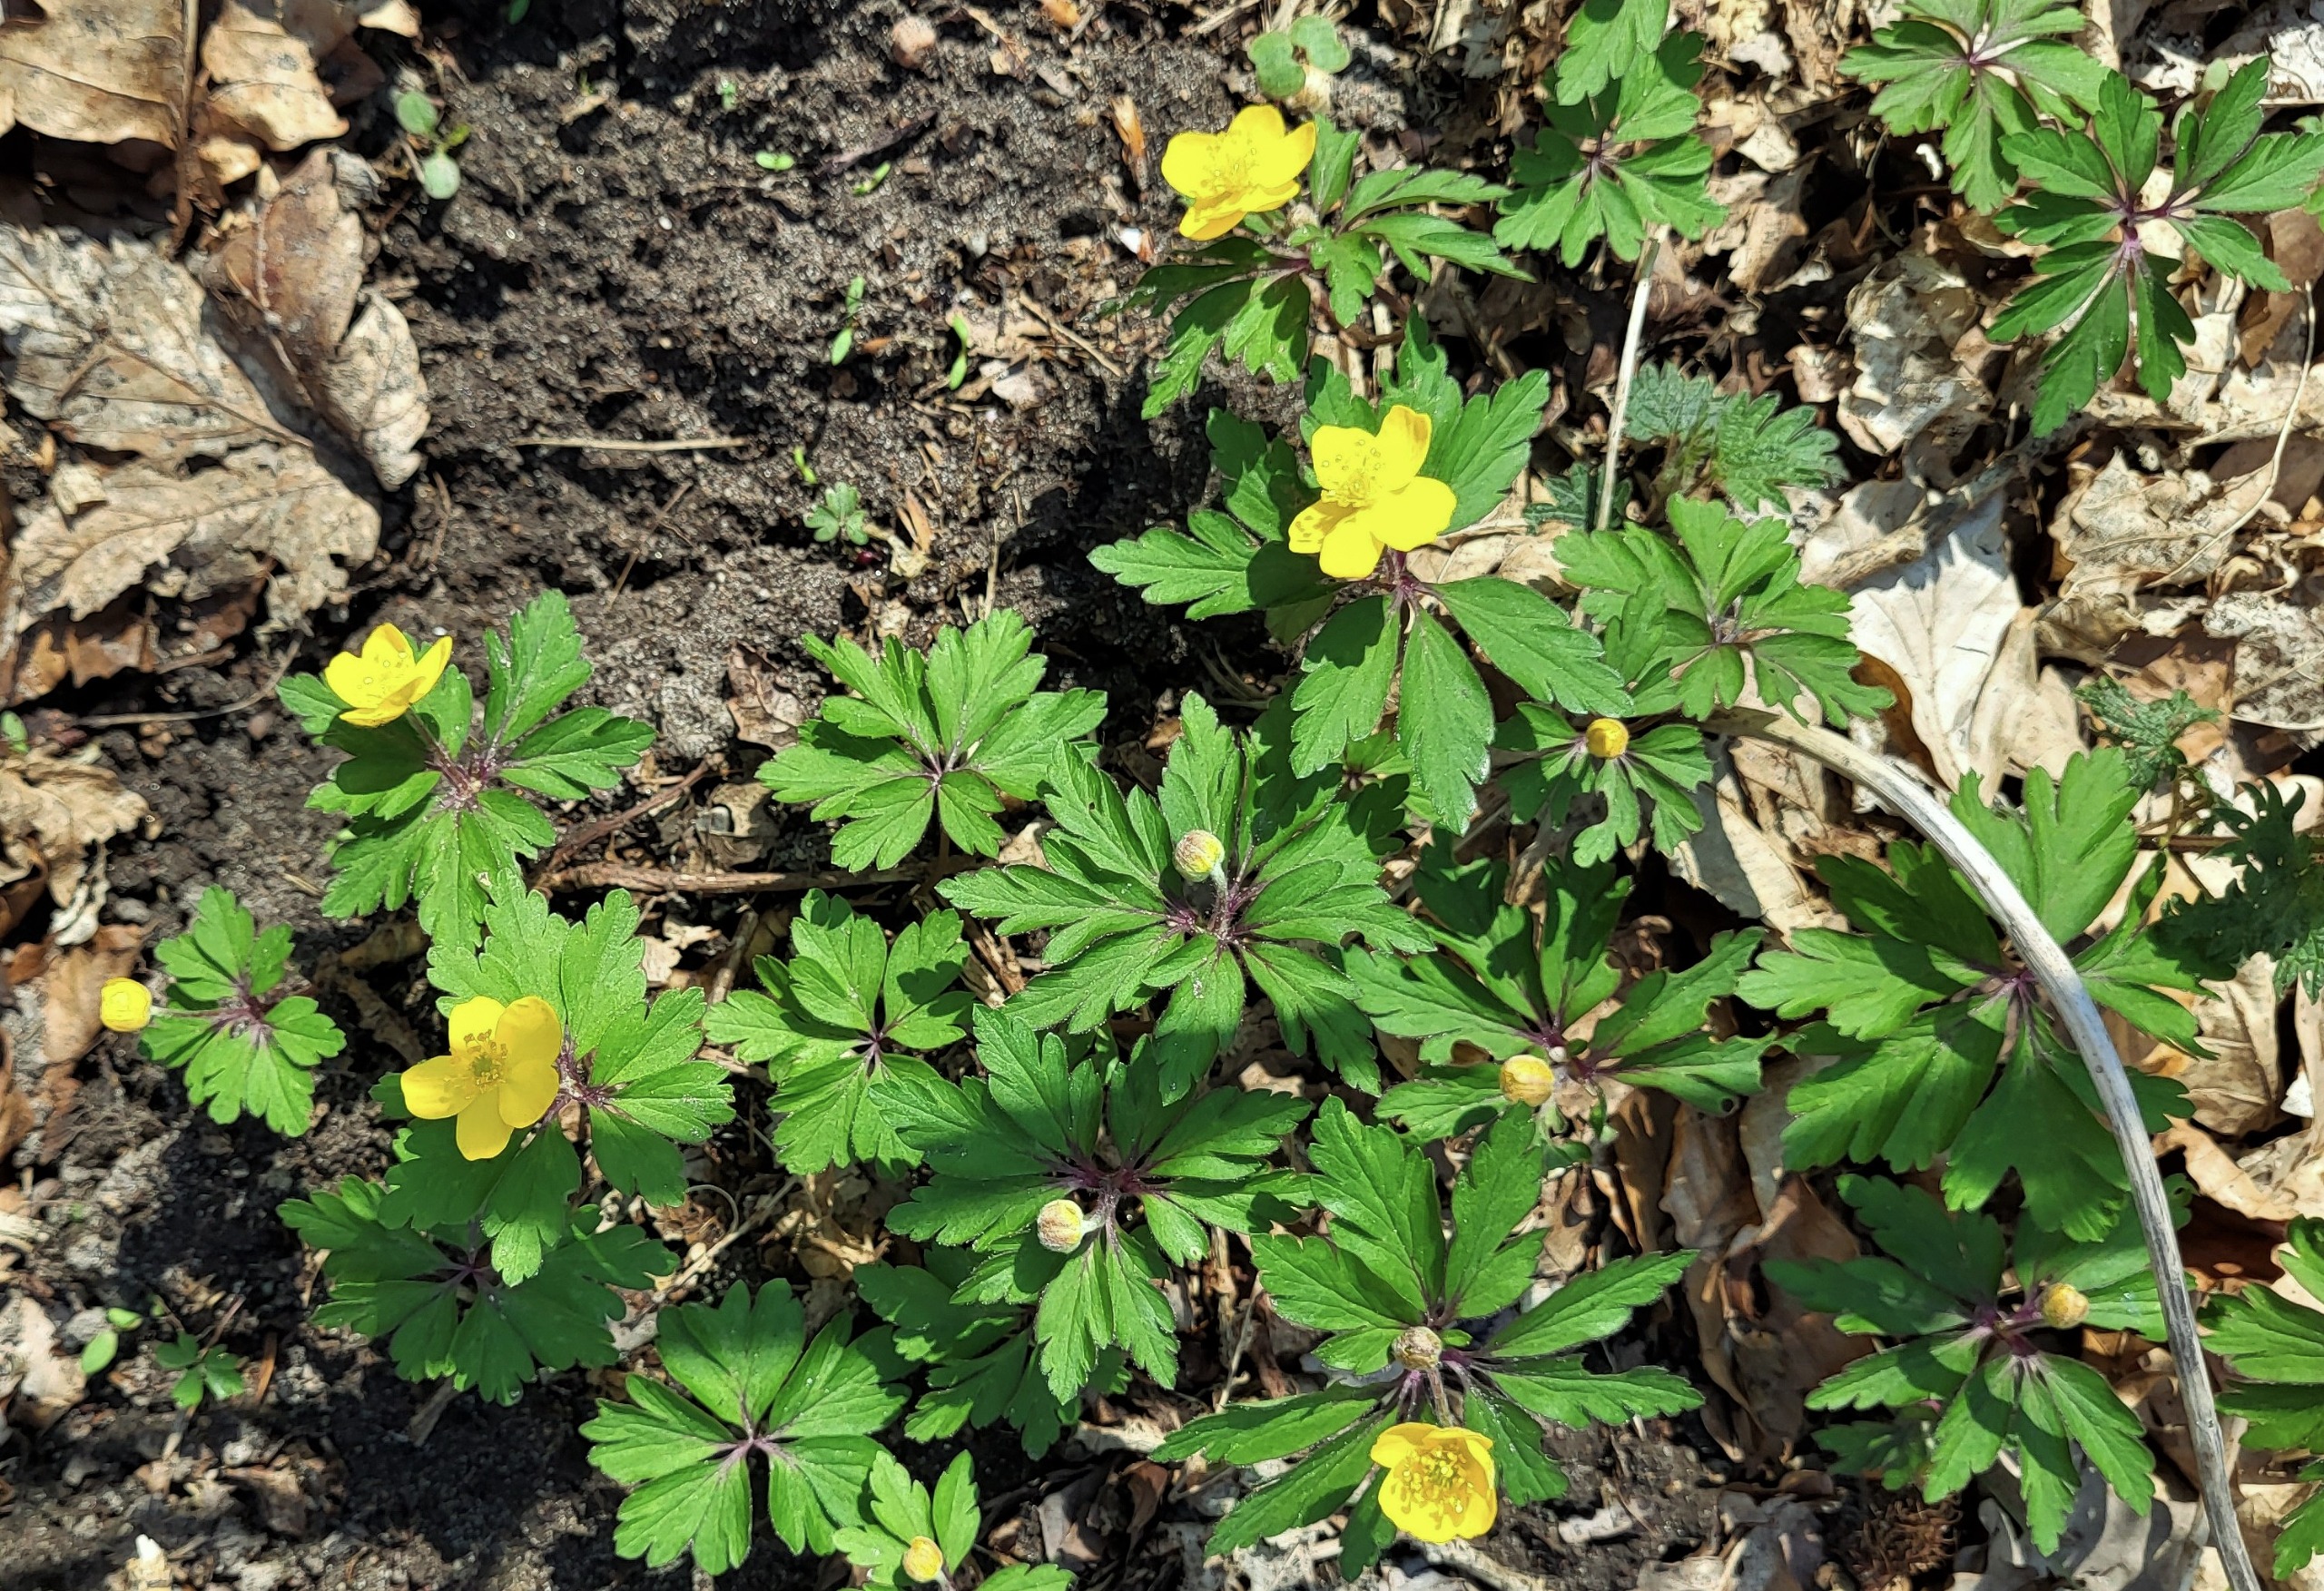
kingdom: Plantae
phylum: Tracheophyta
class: Magnoliopsida
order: Ranunculales
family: Ranunculaceae
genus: Anemone
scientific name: Anemone ranunculoides
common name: Gul anemone
